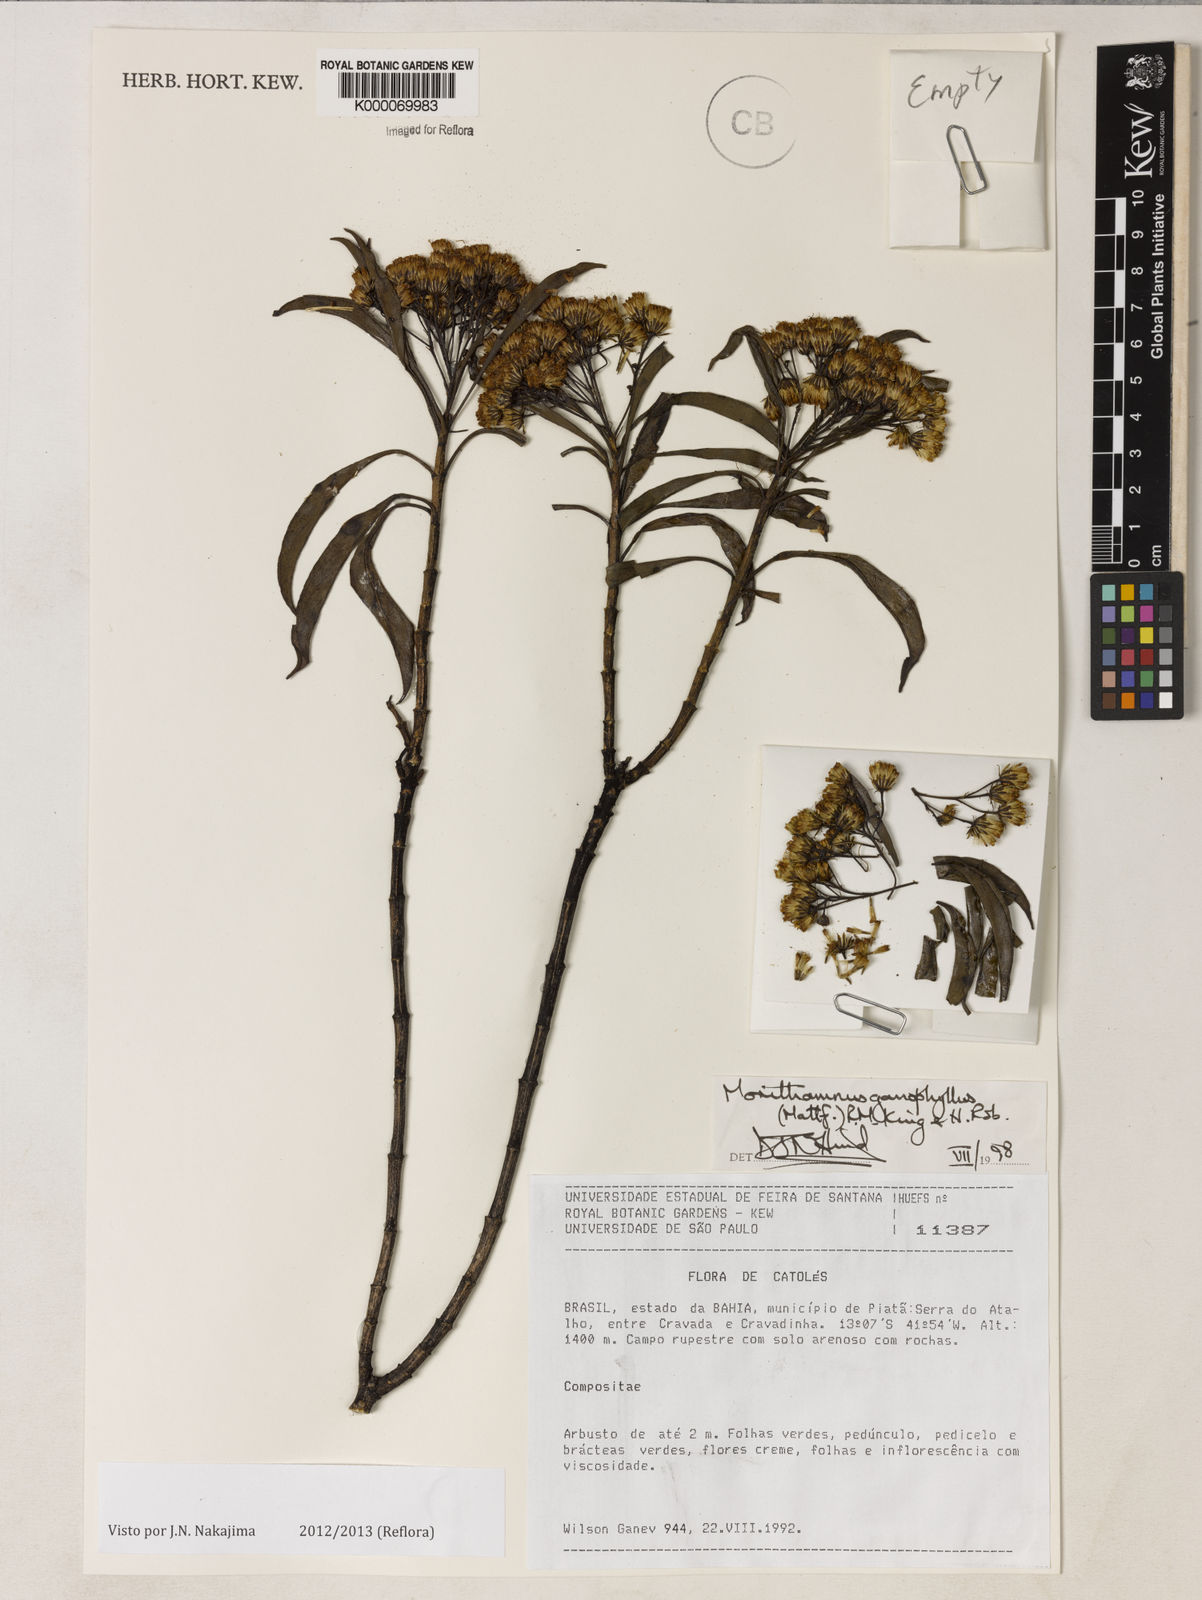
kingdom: Plantae
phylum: Tracheophyta
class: Magnoliopsida
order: Asterales
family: Asteraceae
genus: Morithamnus
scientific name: Morithamnus ganophyllus
